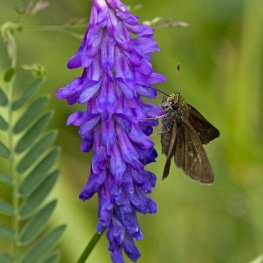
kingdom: Animalia
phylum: Arthropoda
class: Insecta
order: Lepidoptera
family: Hesperiidae
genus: Euphyes
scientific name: Euphyes vestris
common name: Dun Skipper
